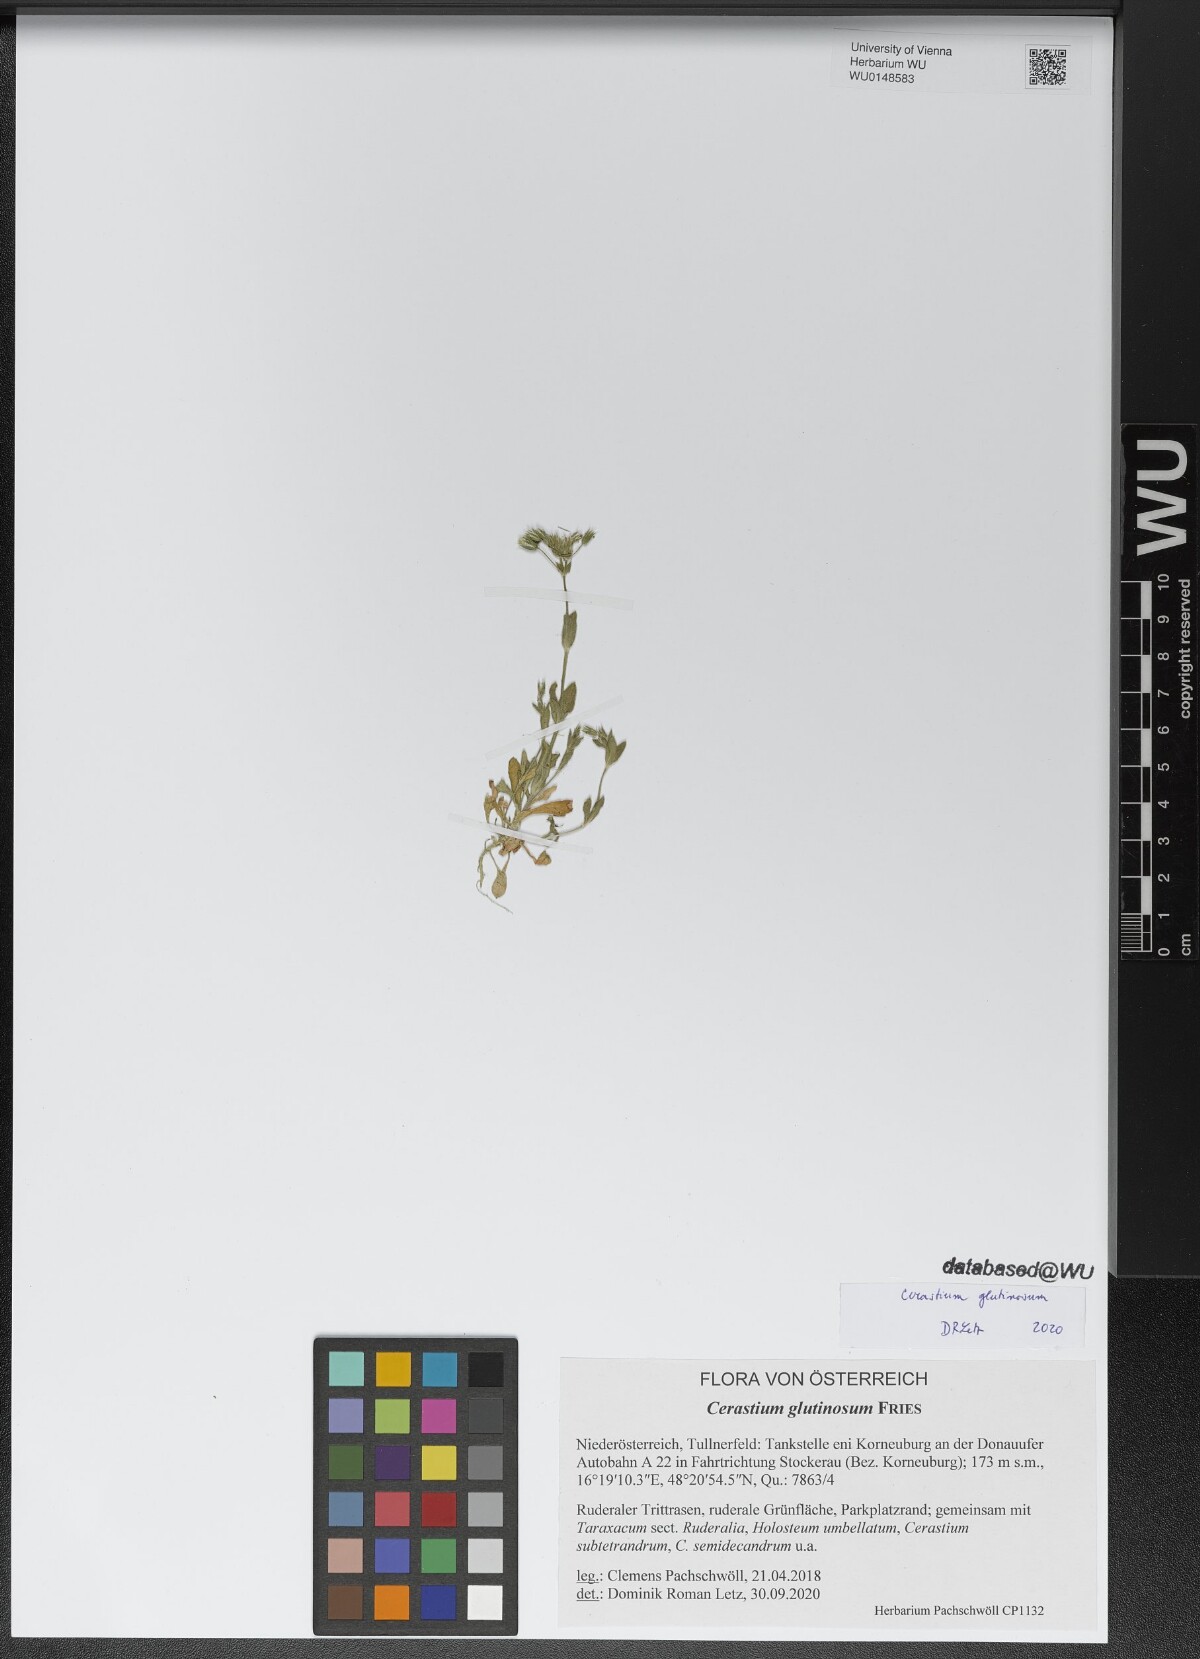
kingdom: Plantae
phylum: Tracheophyta
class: Magnoliopsida
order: Caryophyllales
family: Caryophyllaceae
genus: Cerastium
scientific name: Cerastium glutinosum
